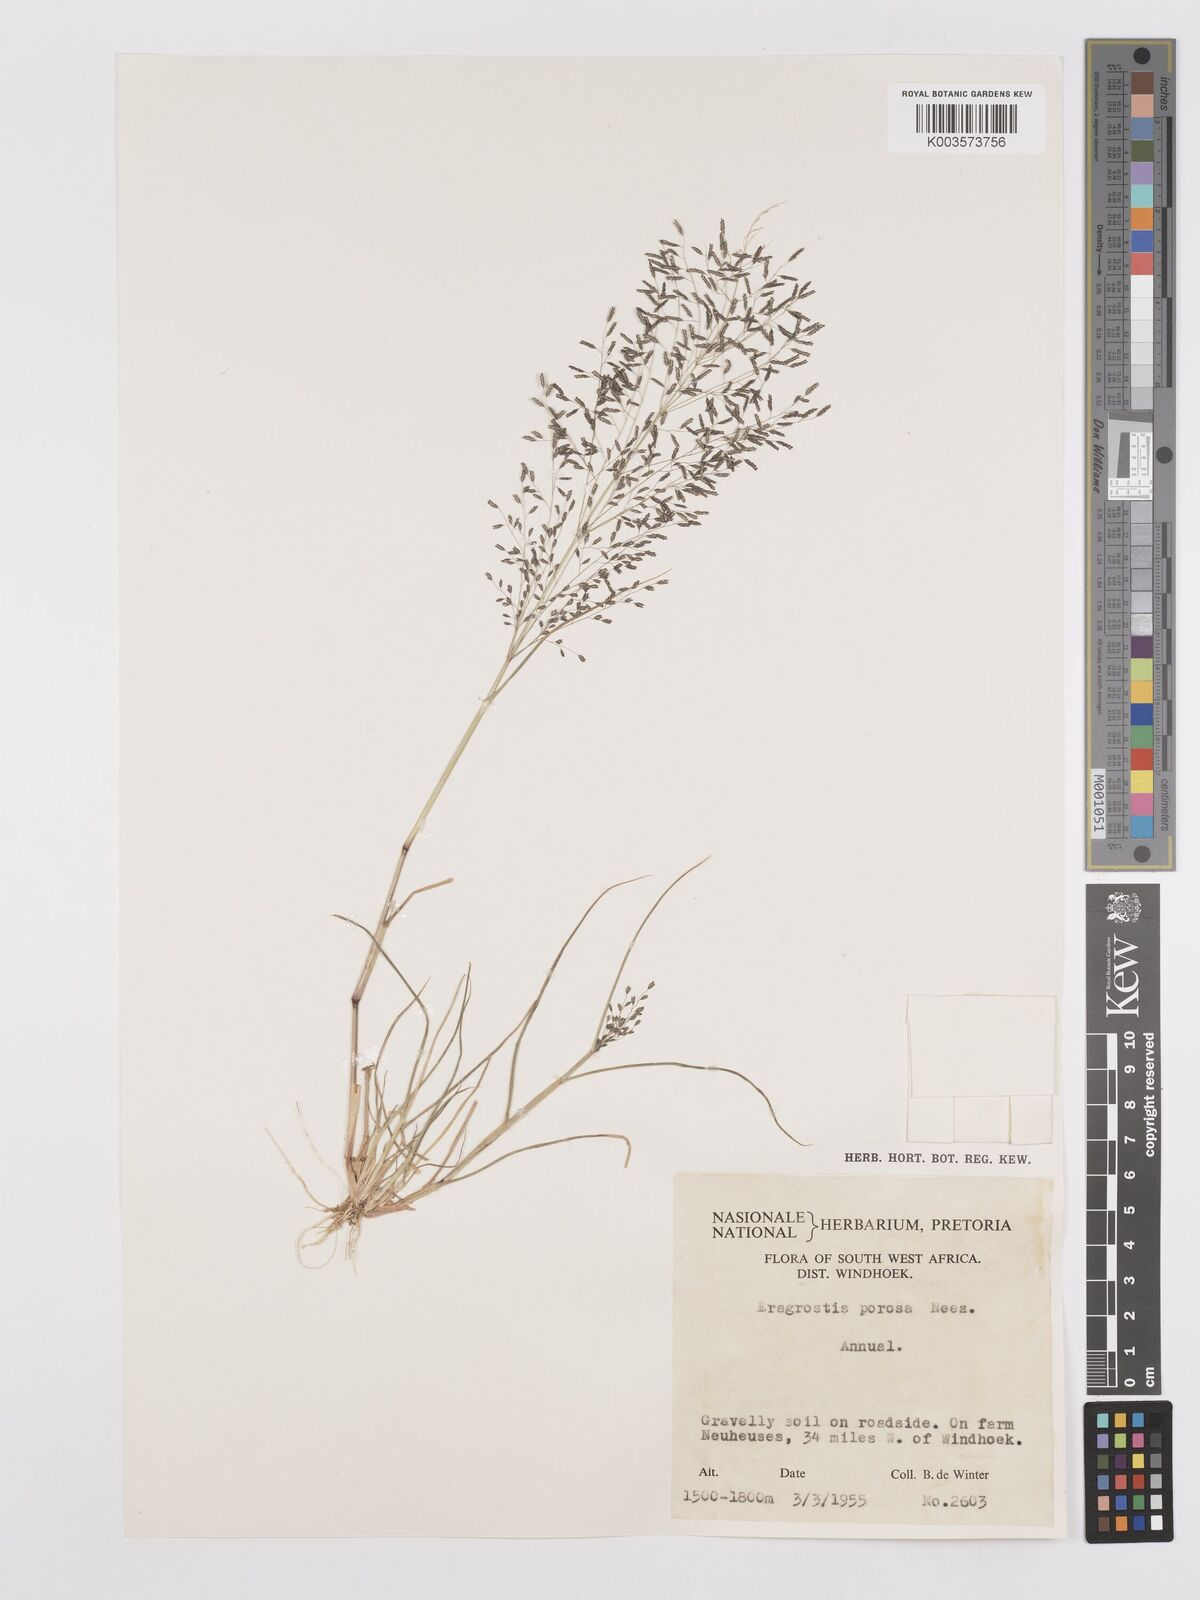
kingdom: Plantae
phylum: Tracheophyta
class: Liliopsida
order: Poales
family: Poaceae
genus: Eragrostis
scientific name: Eragrostis porosa
